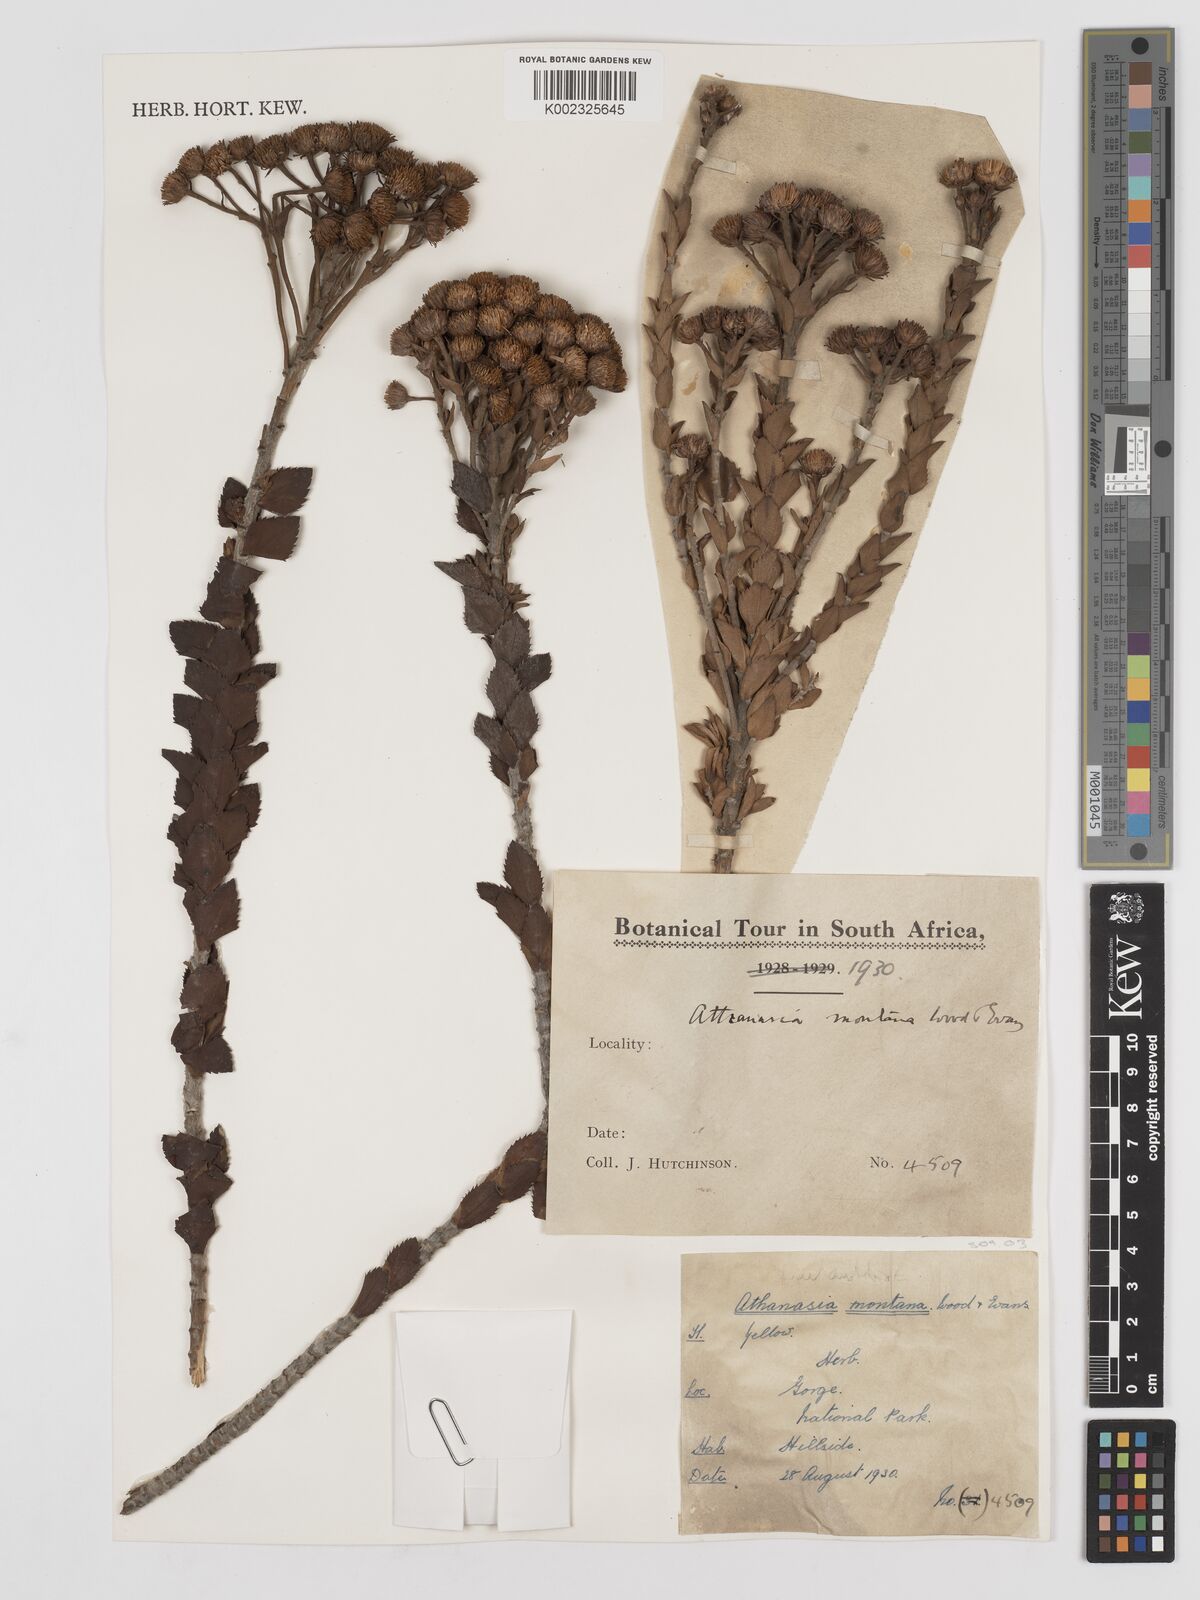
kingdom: Plantae
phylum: Tracheophyta
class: Magnoliopsida
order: Asterales
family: Asteraceae
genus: Inulanthera
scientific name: Inulanthera montana
